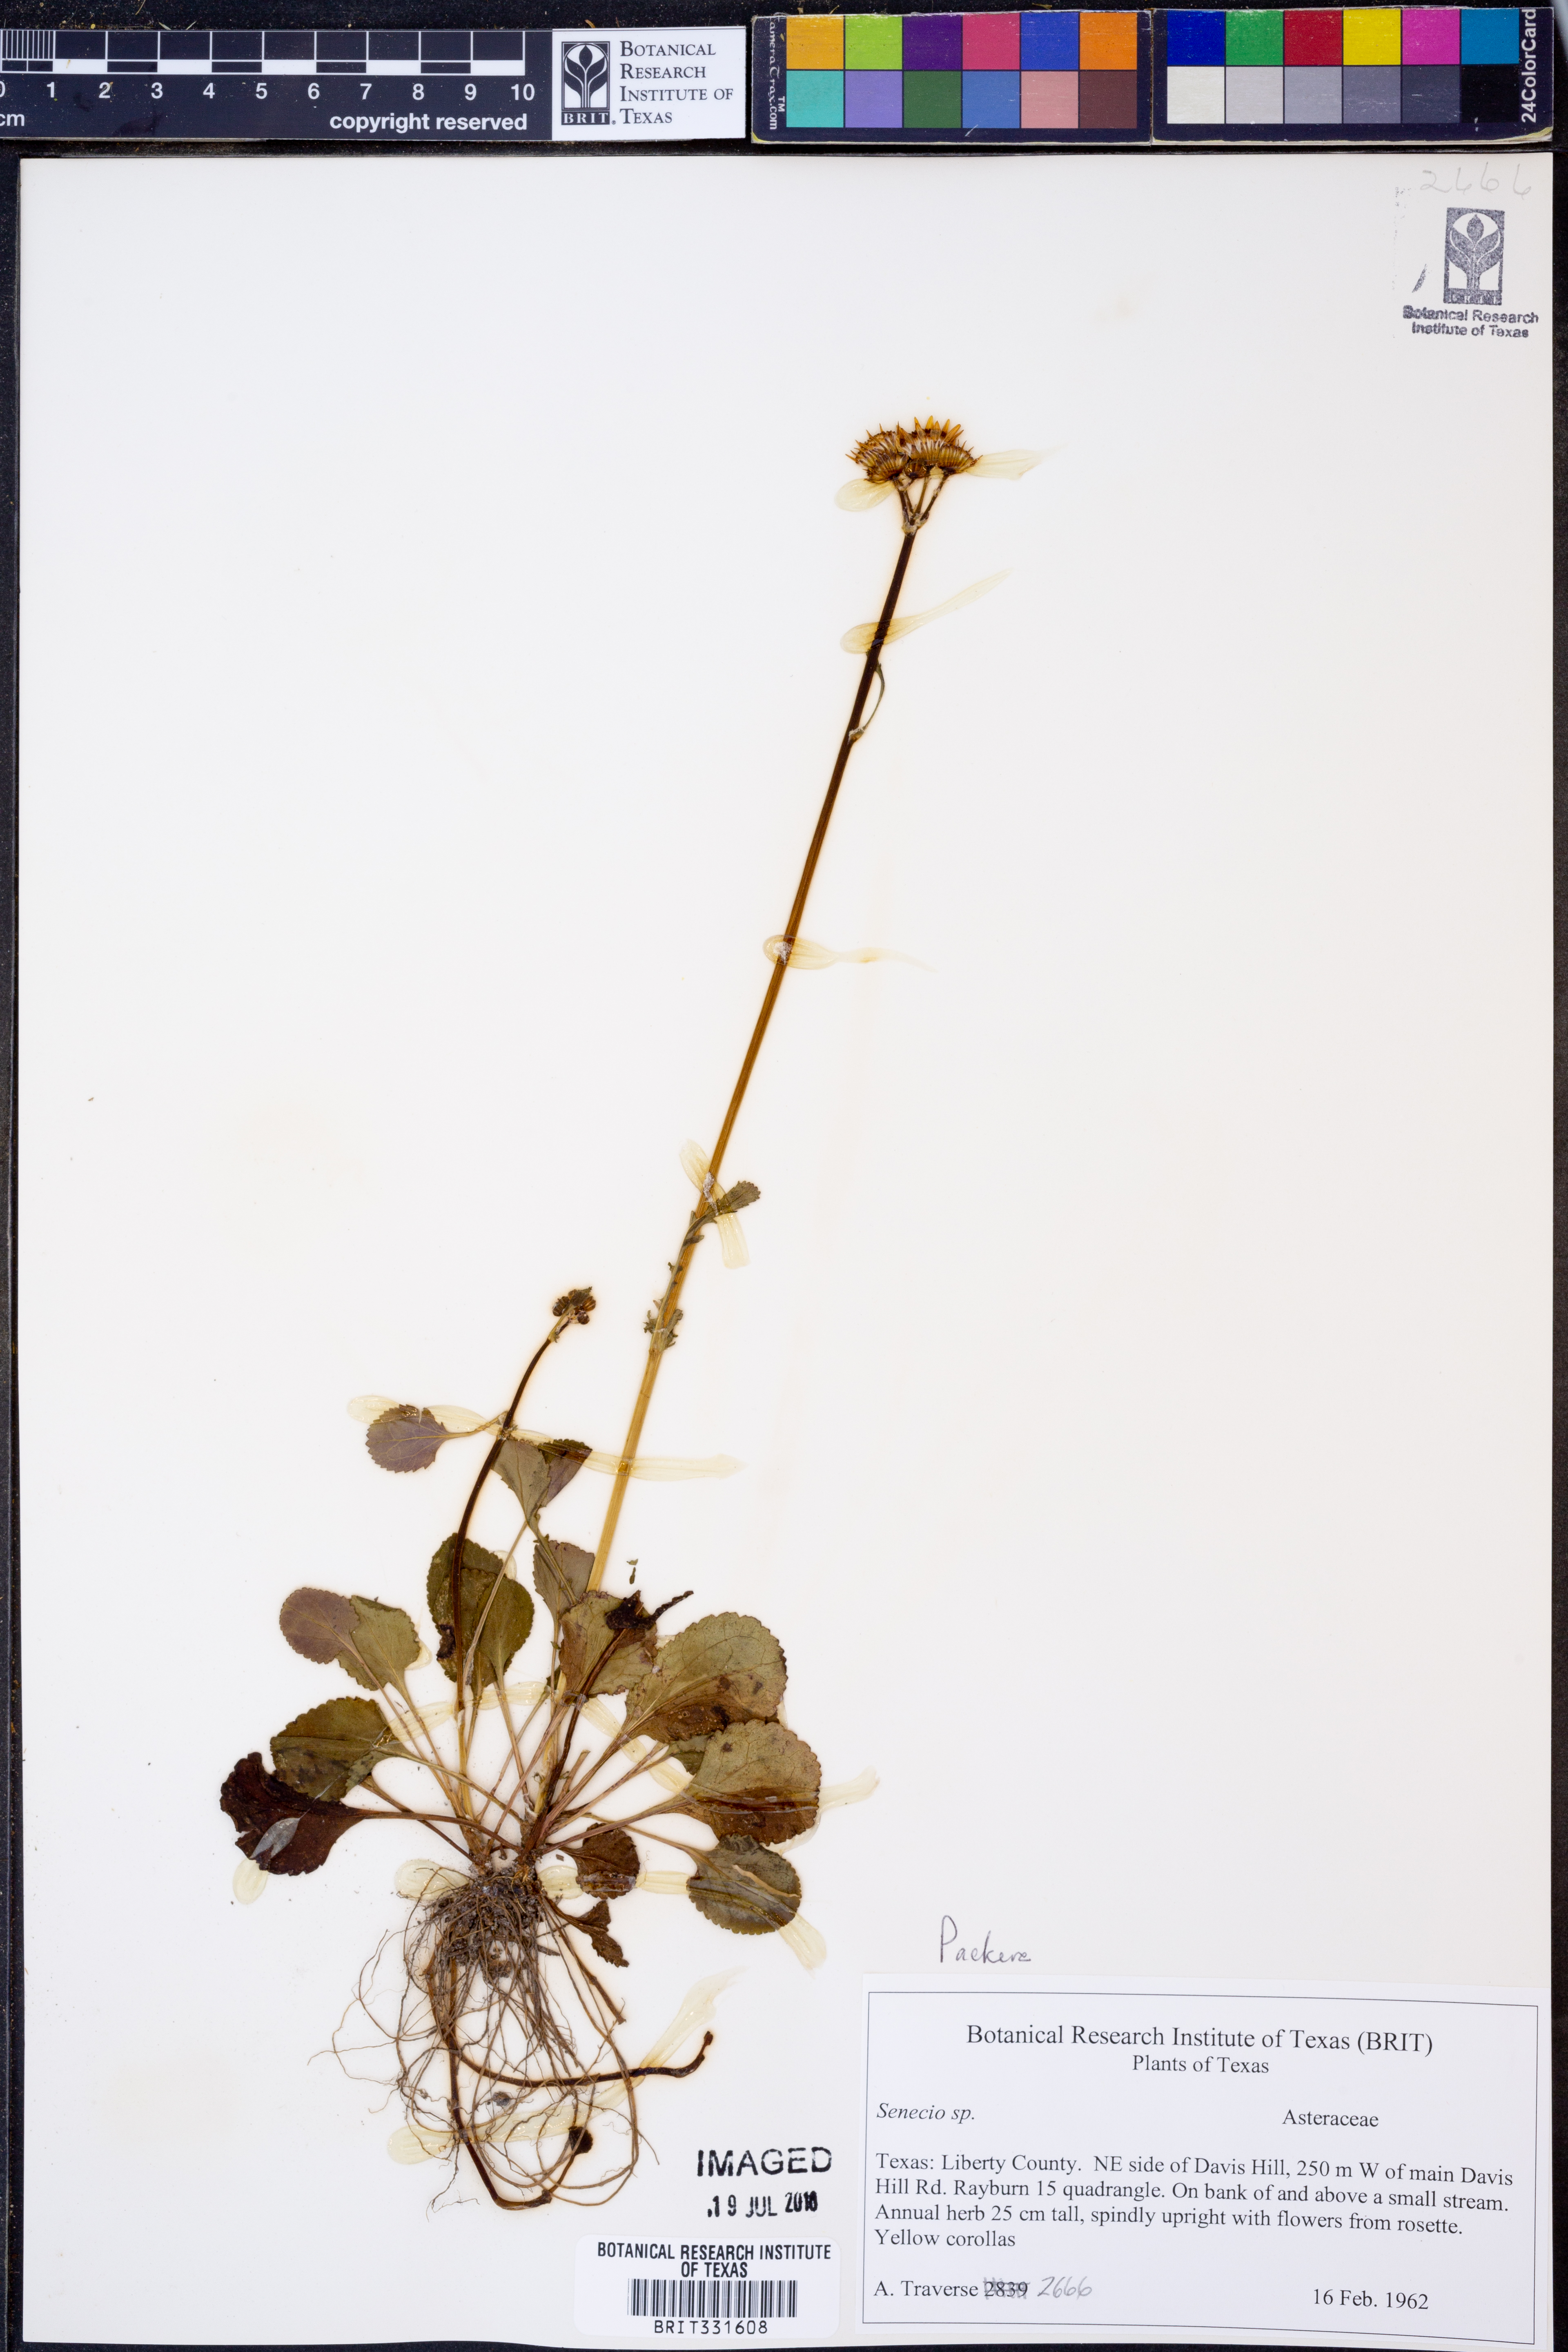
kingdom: Plantae
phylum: Tracheophyta
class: Magnoliopsida
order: Asterales
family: Asteraceae
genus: Packera
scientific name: Packera obovata
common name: Round-leaf ragwort
